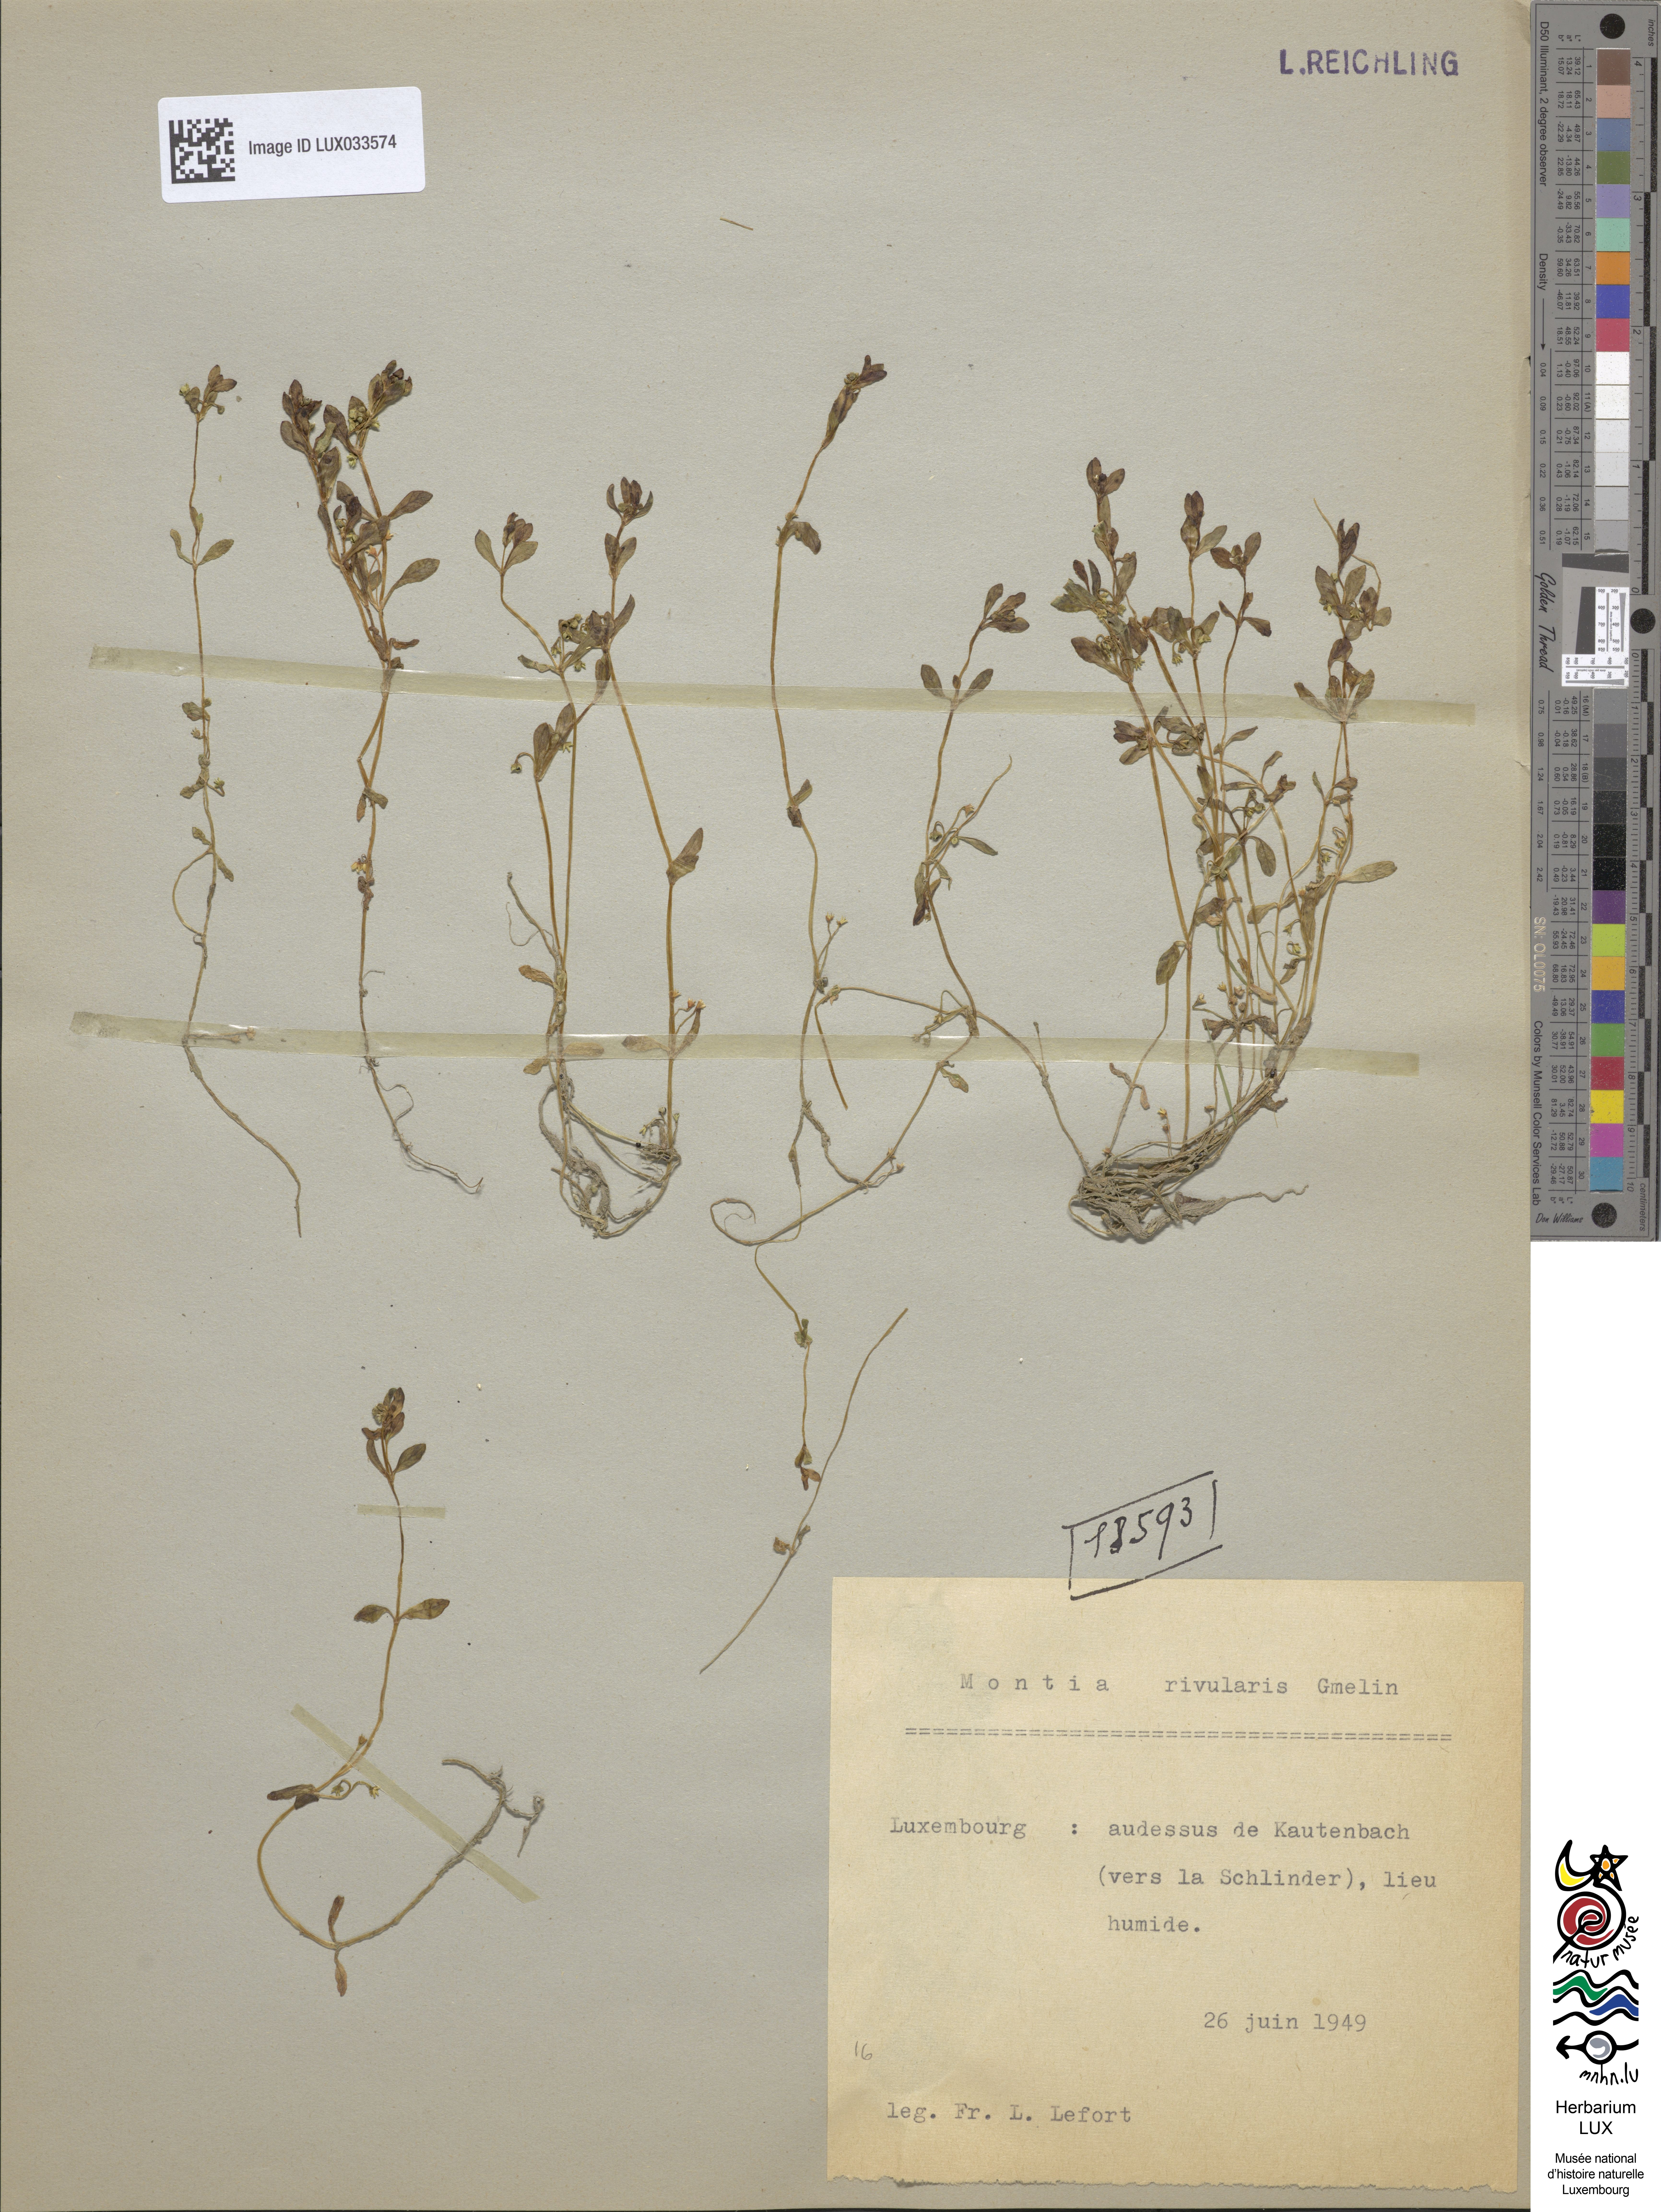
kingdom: Plantae
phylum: Tracheophyta
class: Magnoliopsida
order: Caryophyllales
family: Montiaceae
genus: Montia
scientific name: Montia fontana
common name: Blinks
